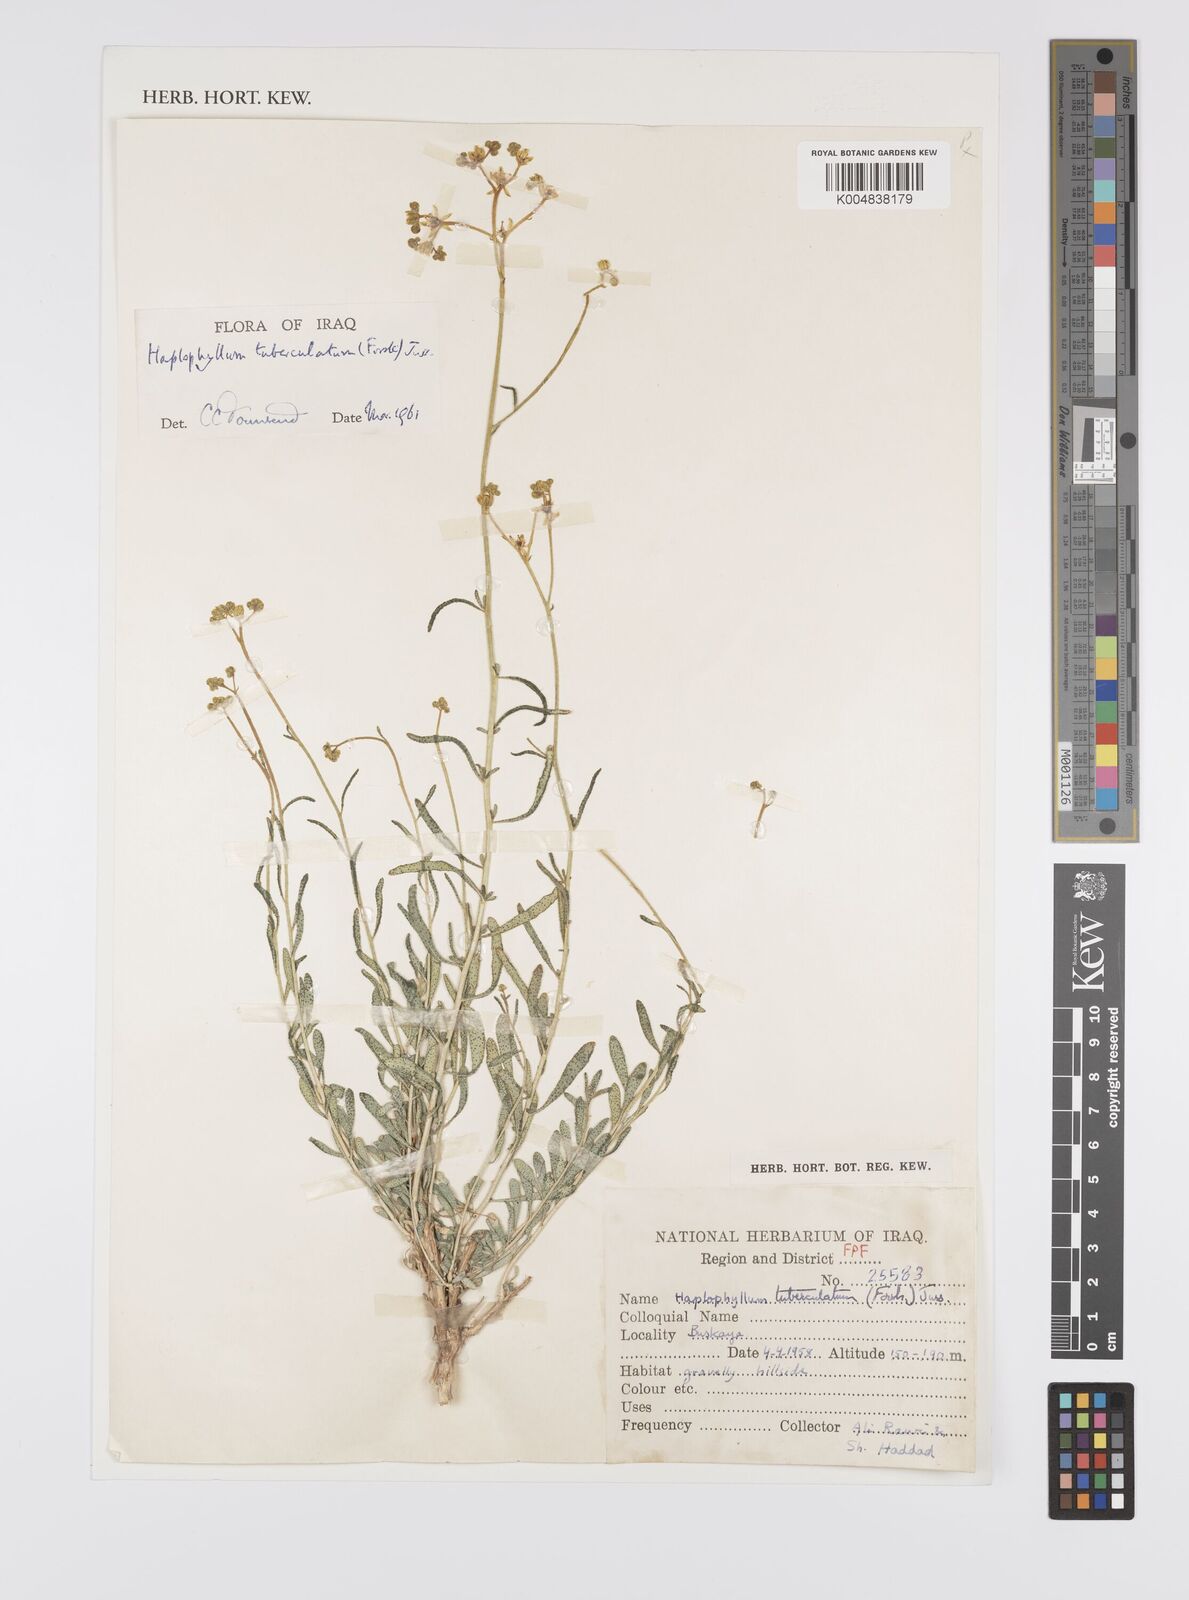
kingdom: Plantae
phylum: Tracheophyta
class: Magnoliopsida
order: Sapindales
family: Rutaceae
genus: Haplophyllum
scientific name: Haplophyllum tuberculatum
